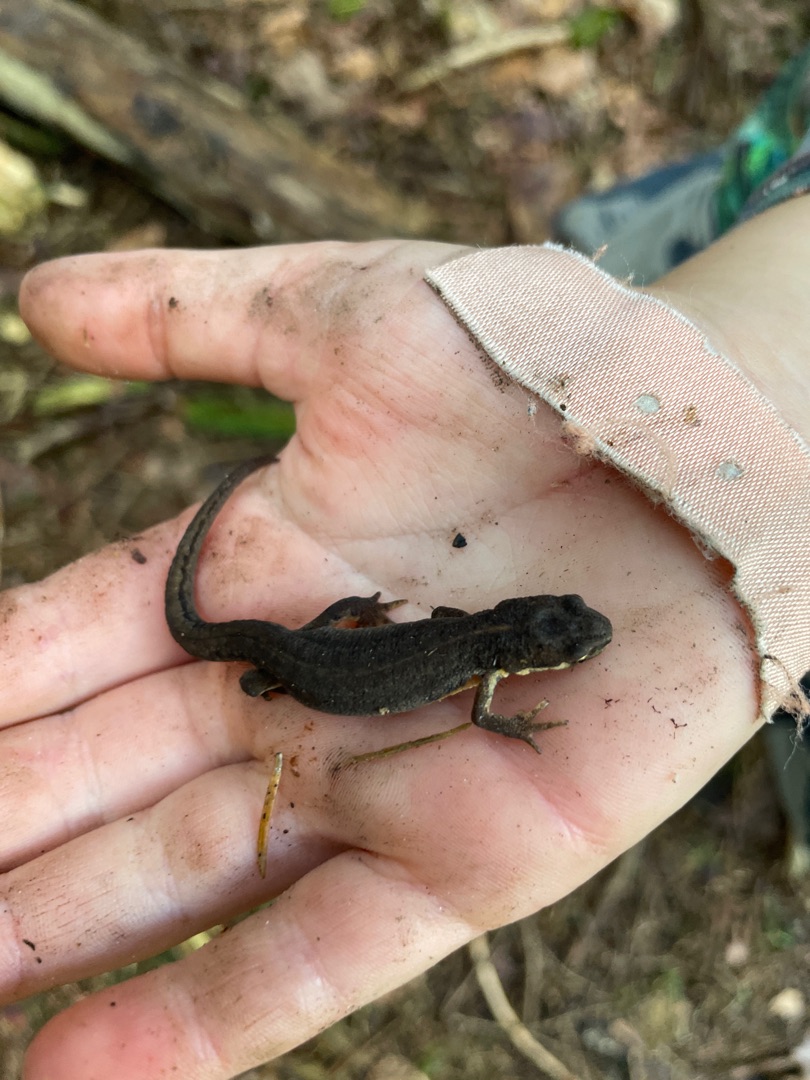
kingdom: Animalia
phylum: Chordata
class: Amphibia
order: Caudata
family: Salamandridae
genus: Lissotriton
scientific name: Lissotriton vulgaris
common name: Lille vandsalamander
